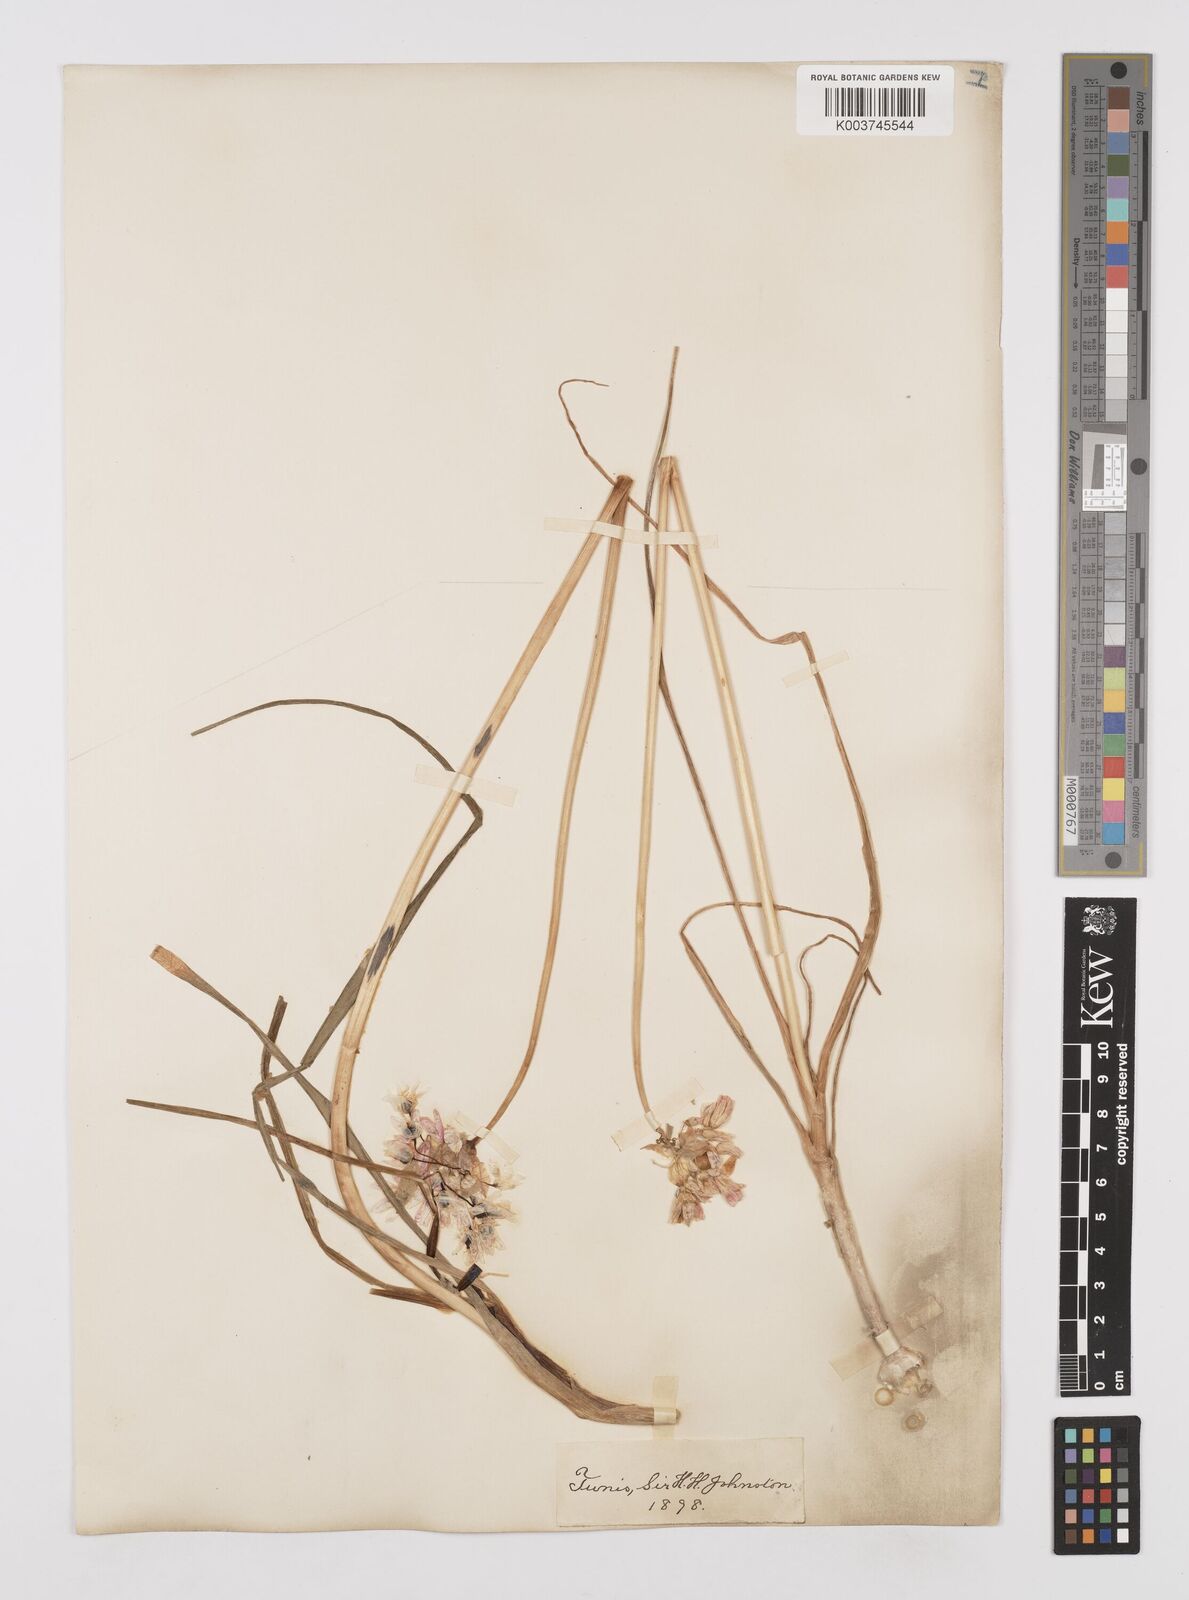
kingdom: Plantae
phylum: Tracheophyta
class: Liliopsida
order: Asparagales
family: Amaryllidaceae
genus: Allium
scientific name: Allium roseum
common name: Rosy garlic
